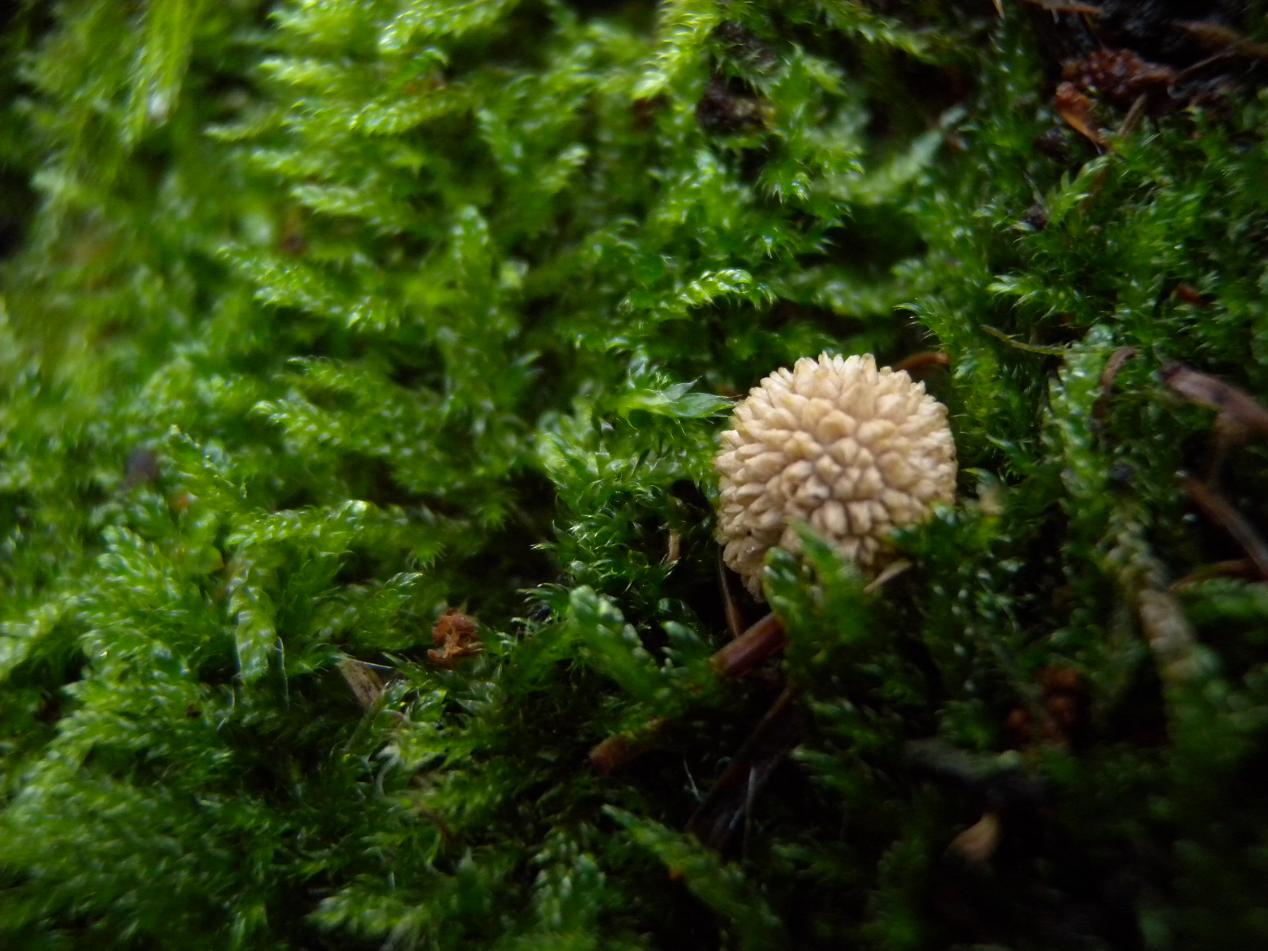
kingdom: Fungi
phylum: Basidiomycota
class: Agaricomycetes
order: Agaricales
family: Agaricaceae
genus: Lycoperdon
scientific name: Lycoperdon
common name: støvbold
